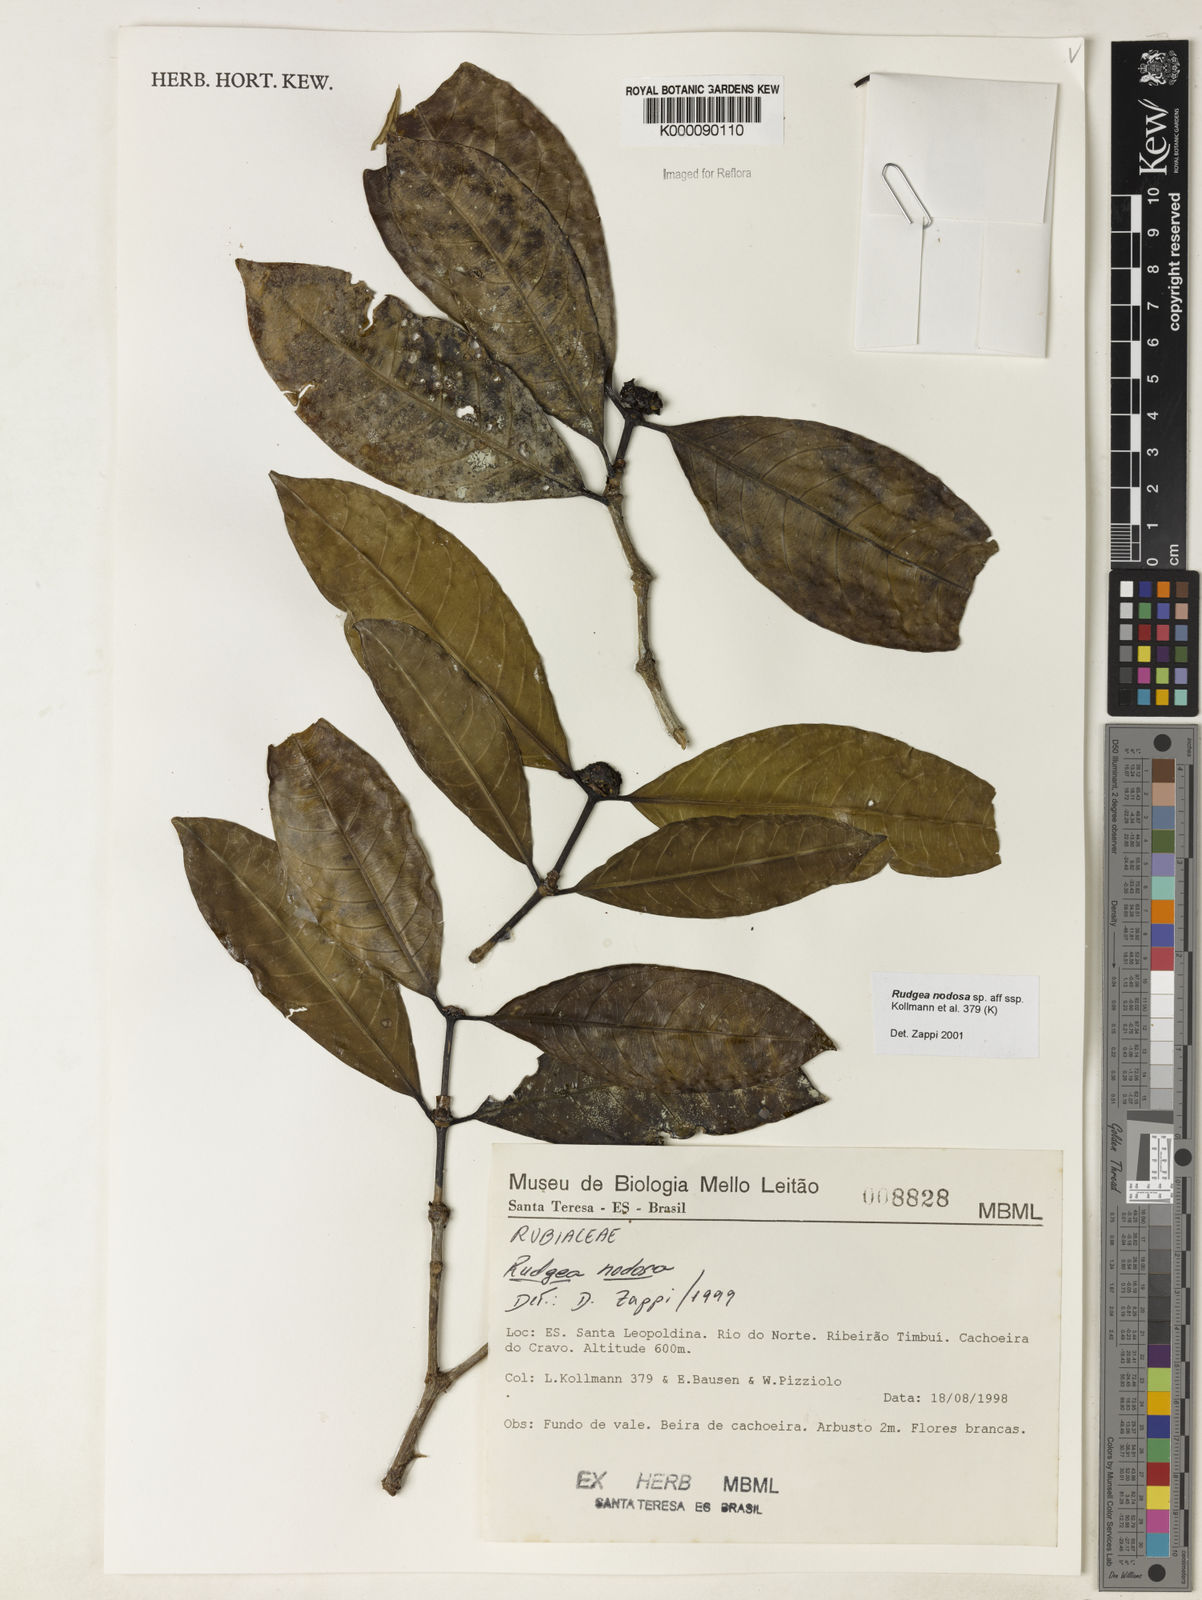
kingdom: Plantae
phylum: Tracheophyta
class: Magnoliopsida
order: Gentianales
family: Rubiaceae
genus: Rudgea
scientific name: Rudgea nodosa
